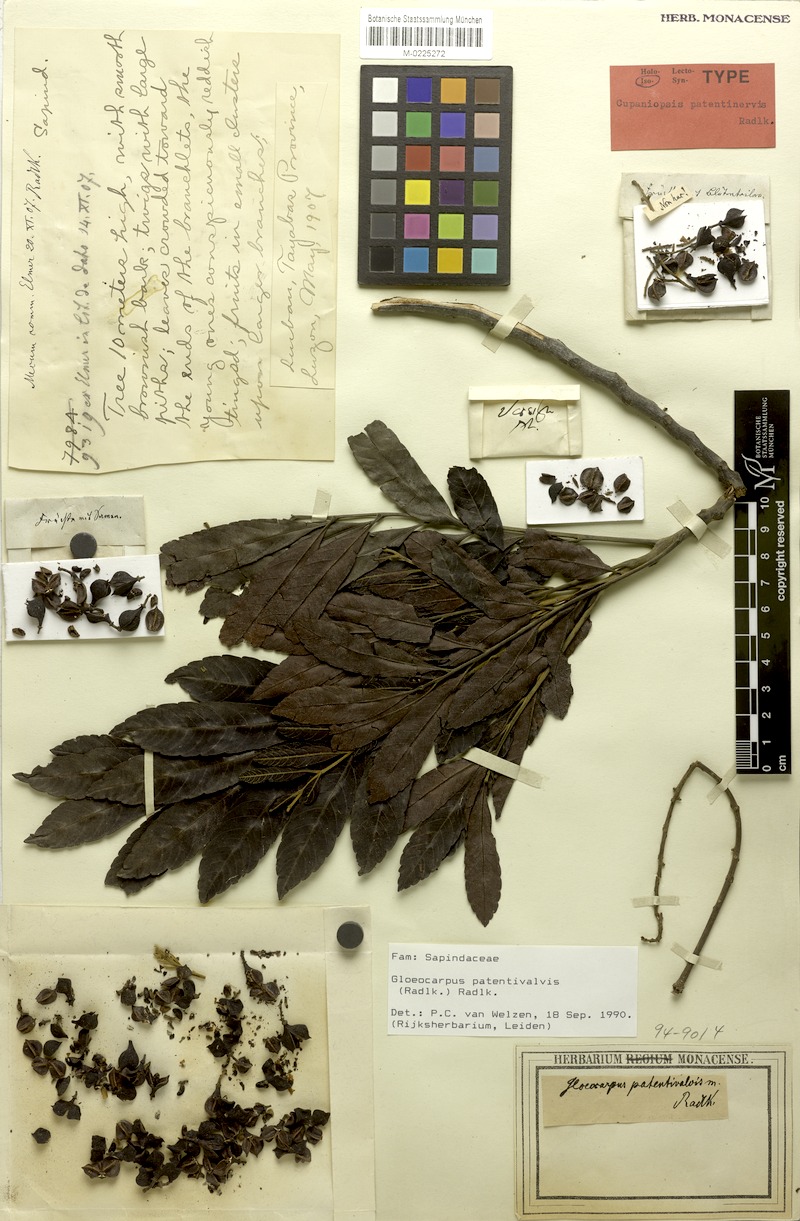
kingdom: Plantae
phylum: Tracheophyta
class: Magnoliopsida
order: Sapindales
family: Sapindaceae
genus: Gloeocarpus
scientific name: Gloeocarpus patentivalvis
